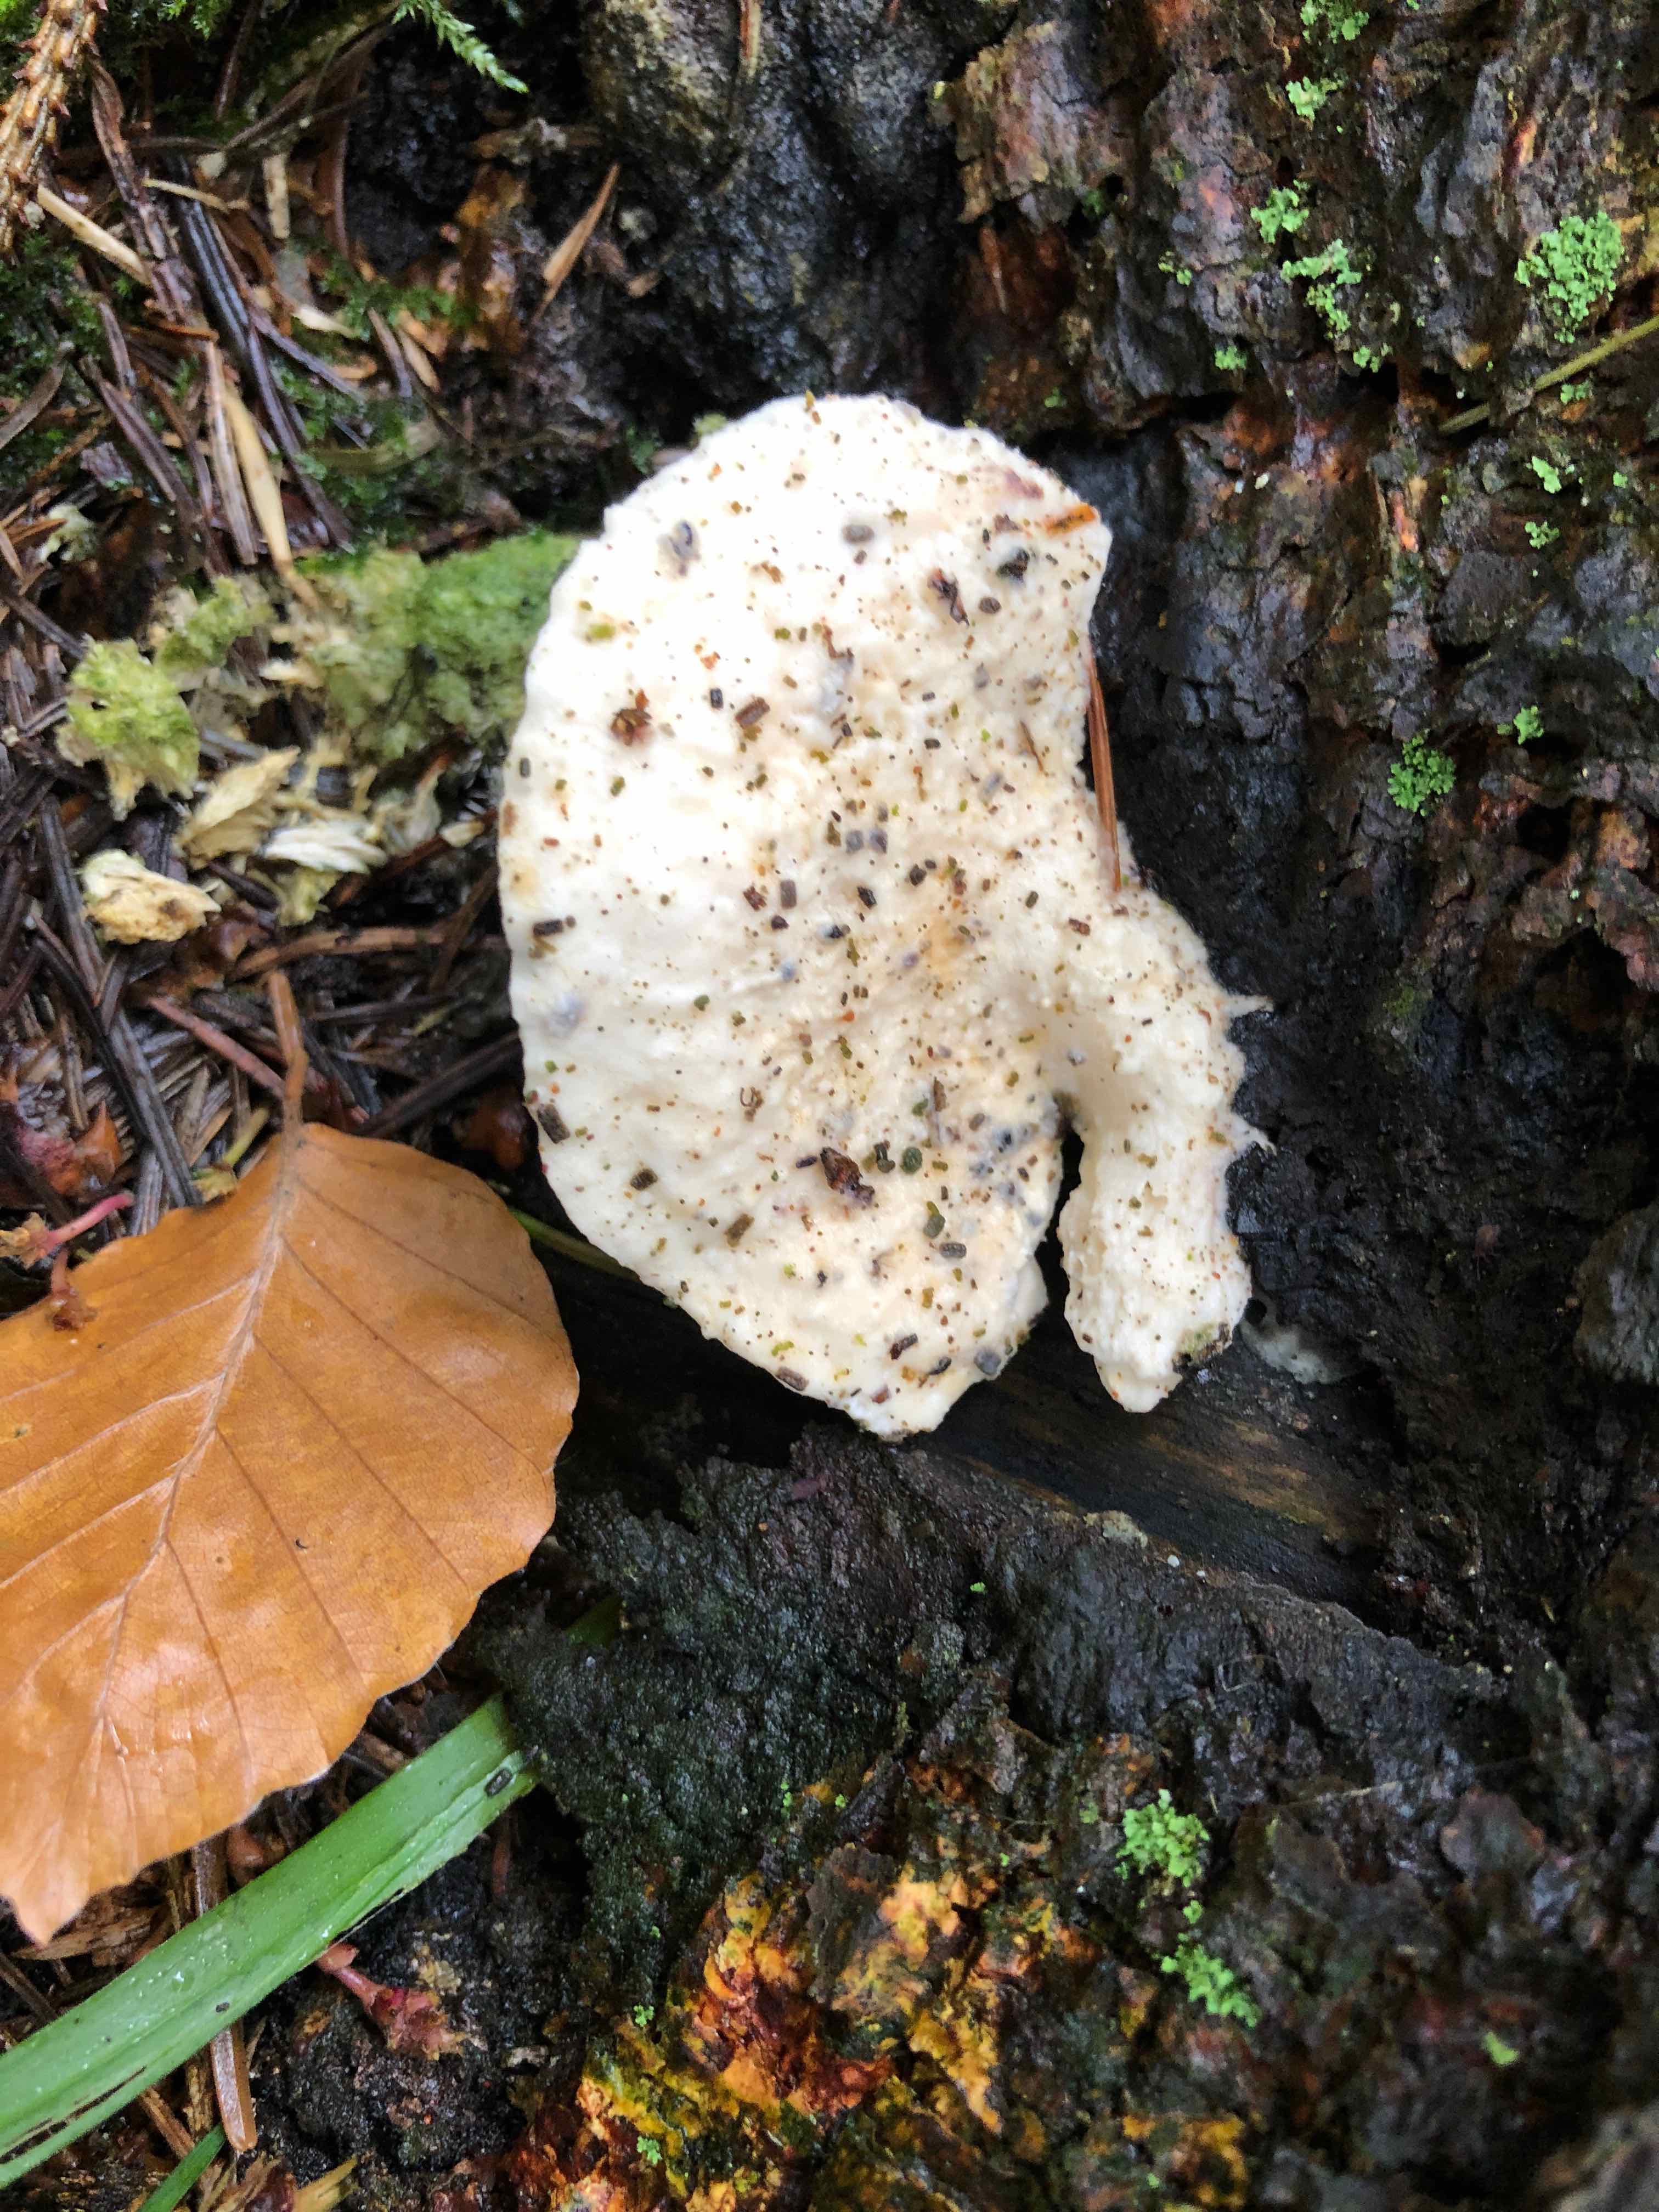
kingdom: Fungi
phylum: Basidiomycota
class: Agaricomycetes
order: Polyporales
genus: Amaropostia
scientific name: Amaropostia stiptica
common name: bitter kødporesvamp
